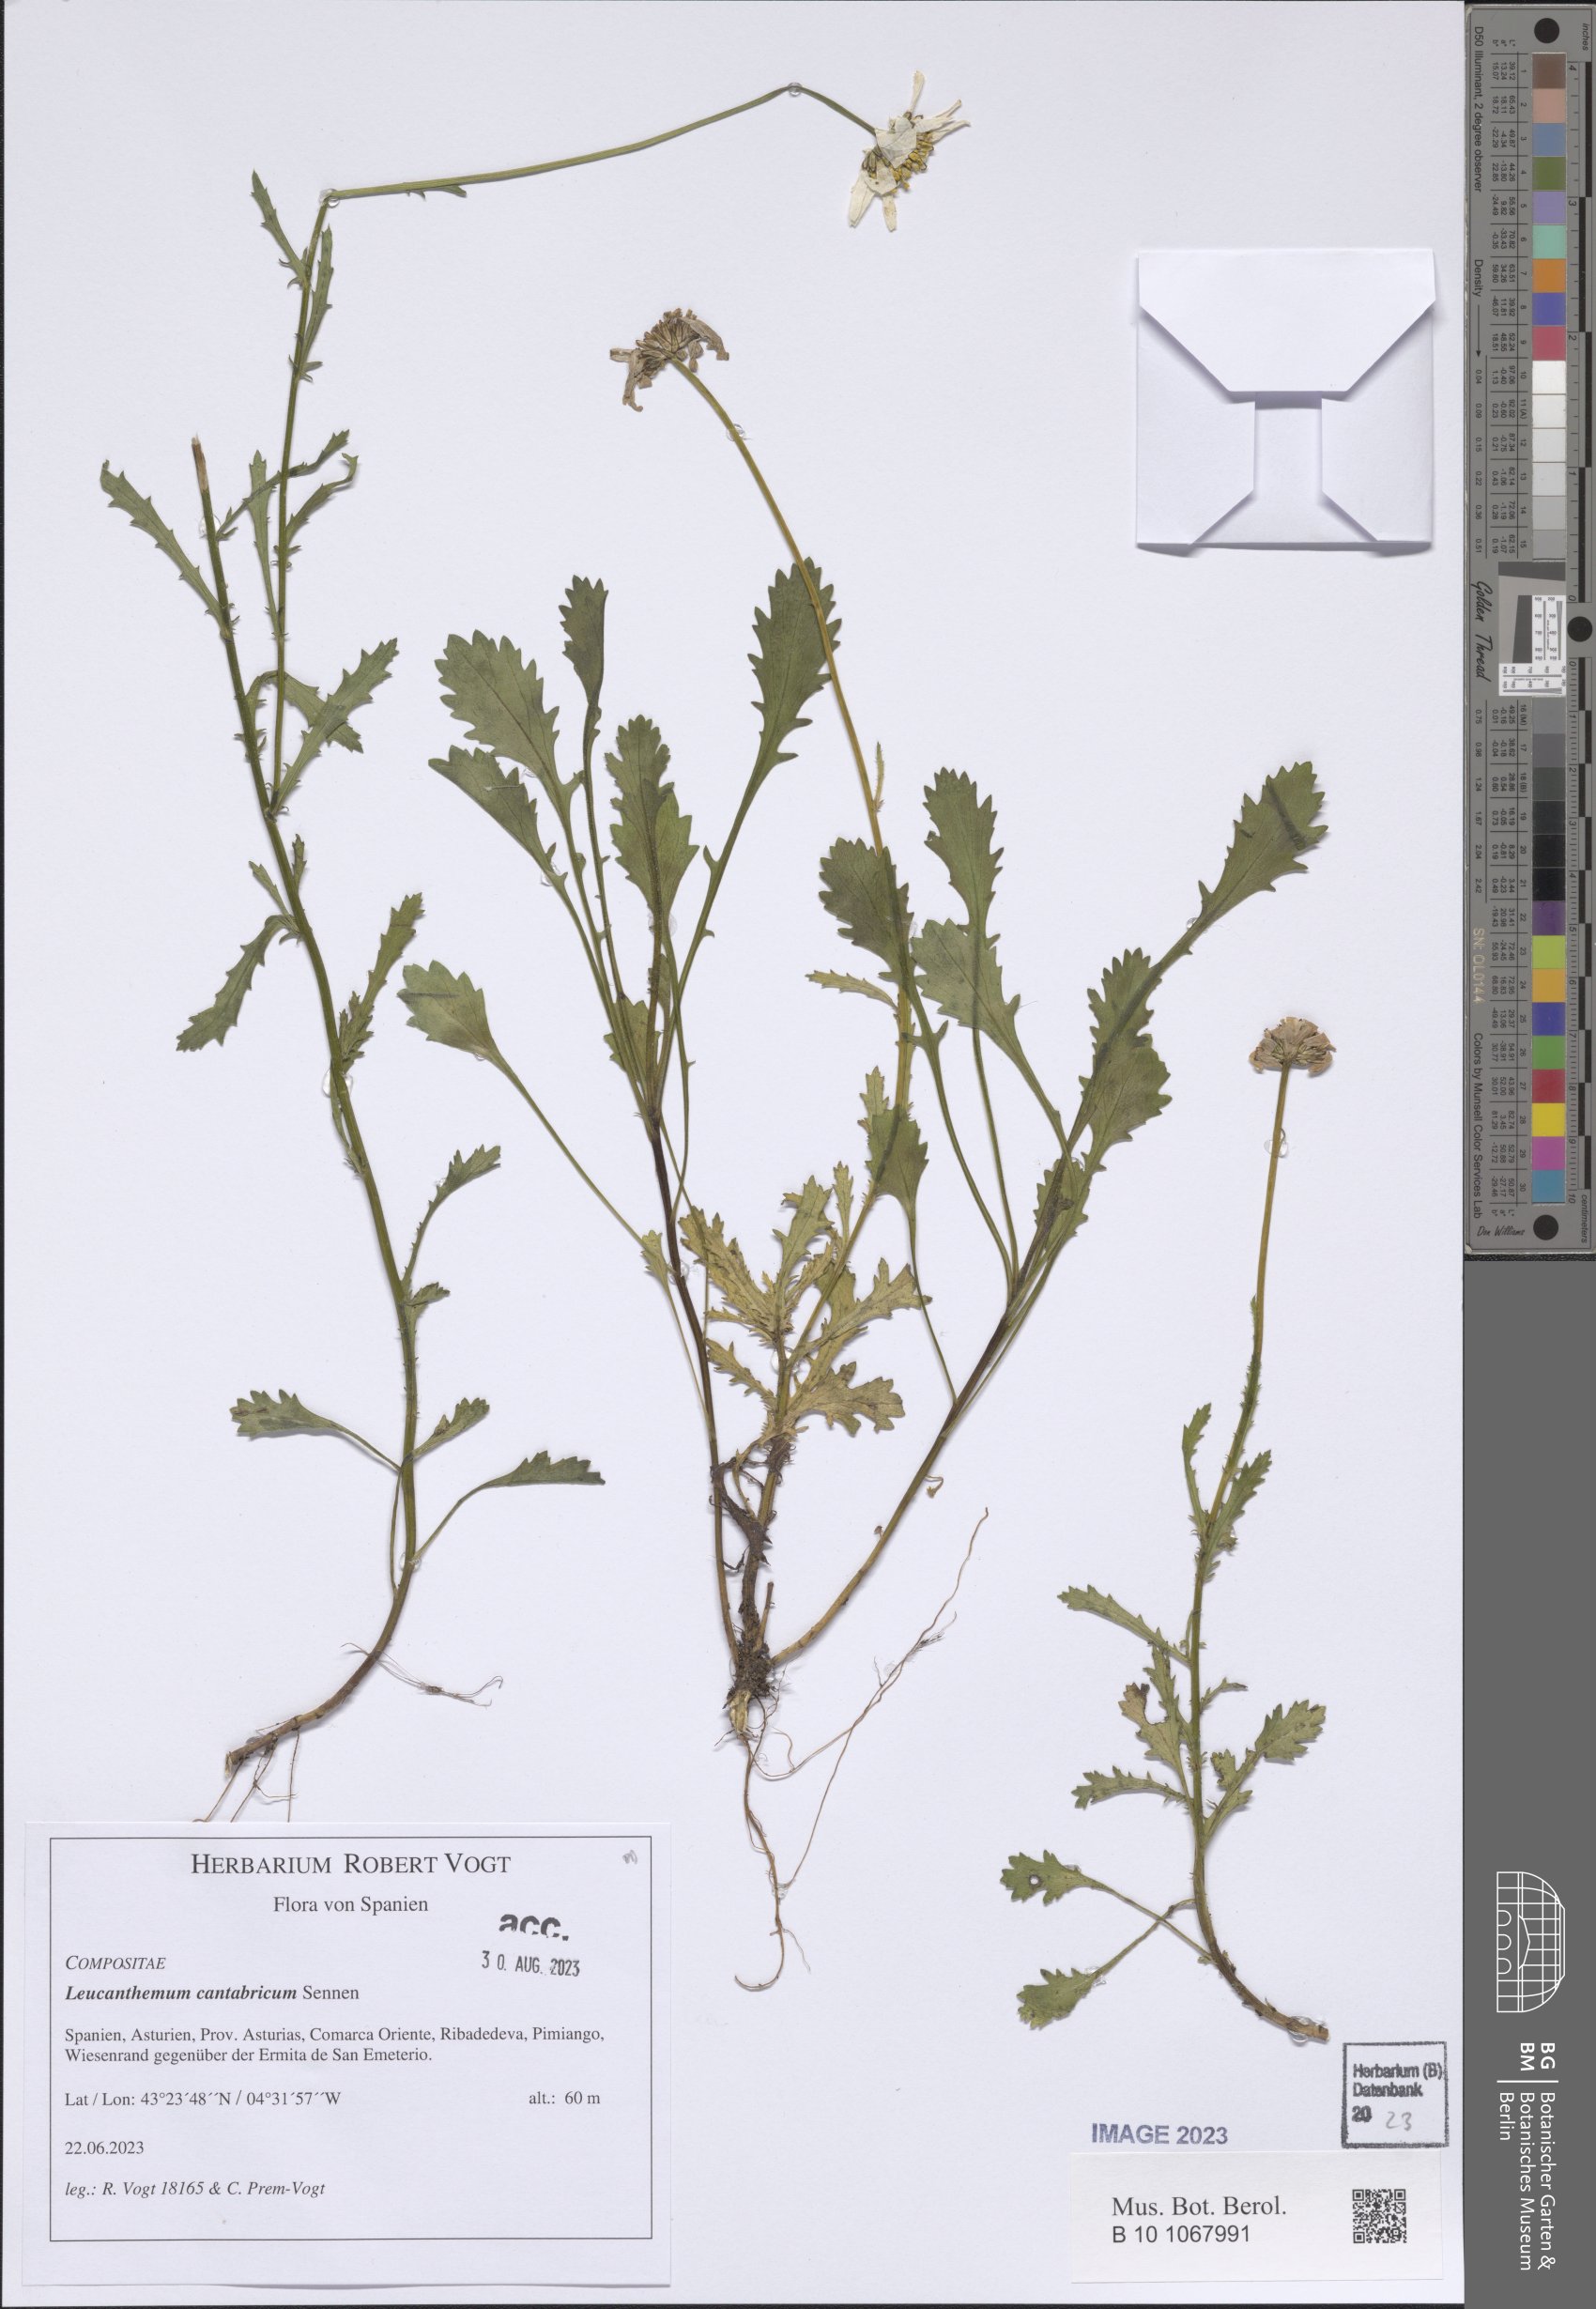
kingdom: Plantae
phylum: Tracheophyta
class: Magnoliopsida
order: Asterales
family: Asteraceae
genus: Leucanthemum
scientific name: Leucanthemum cantabricum
